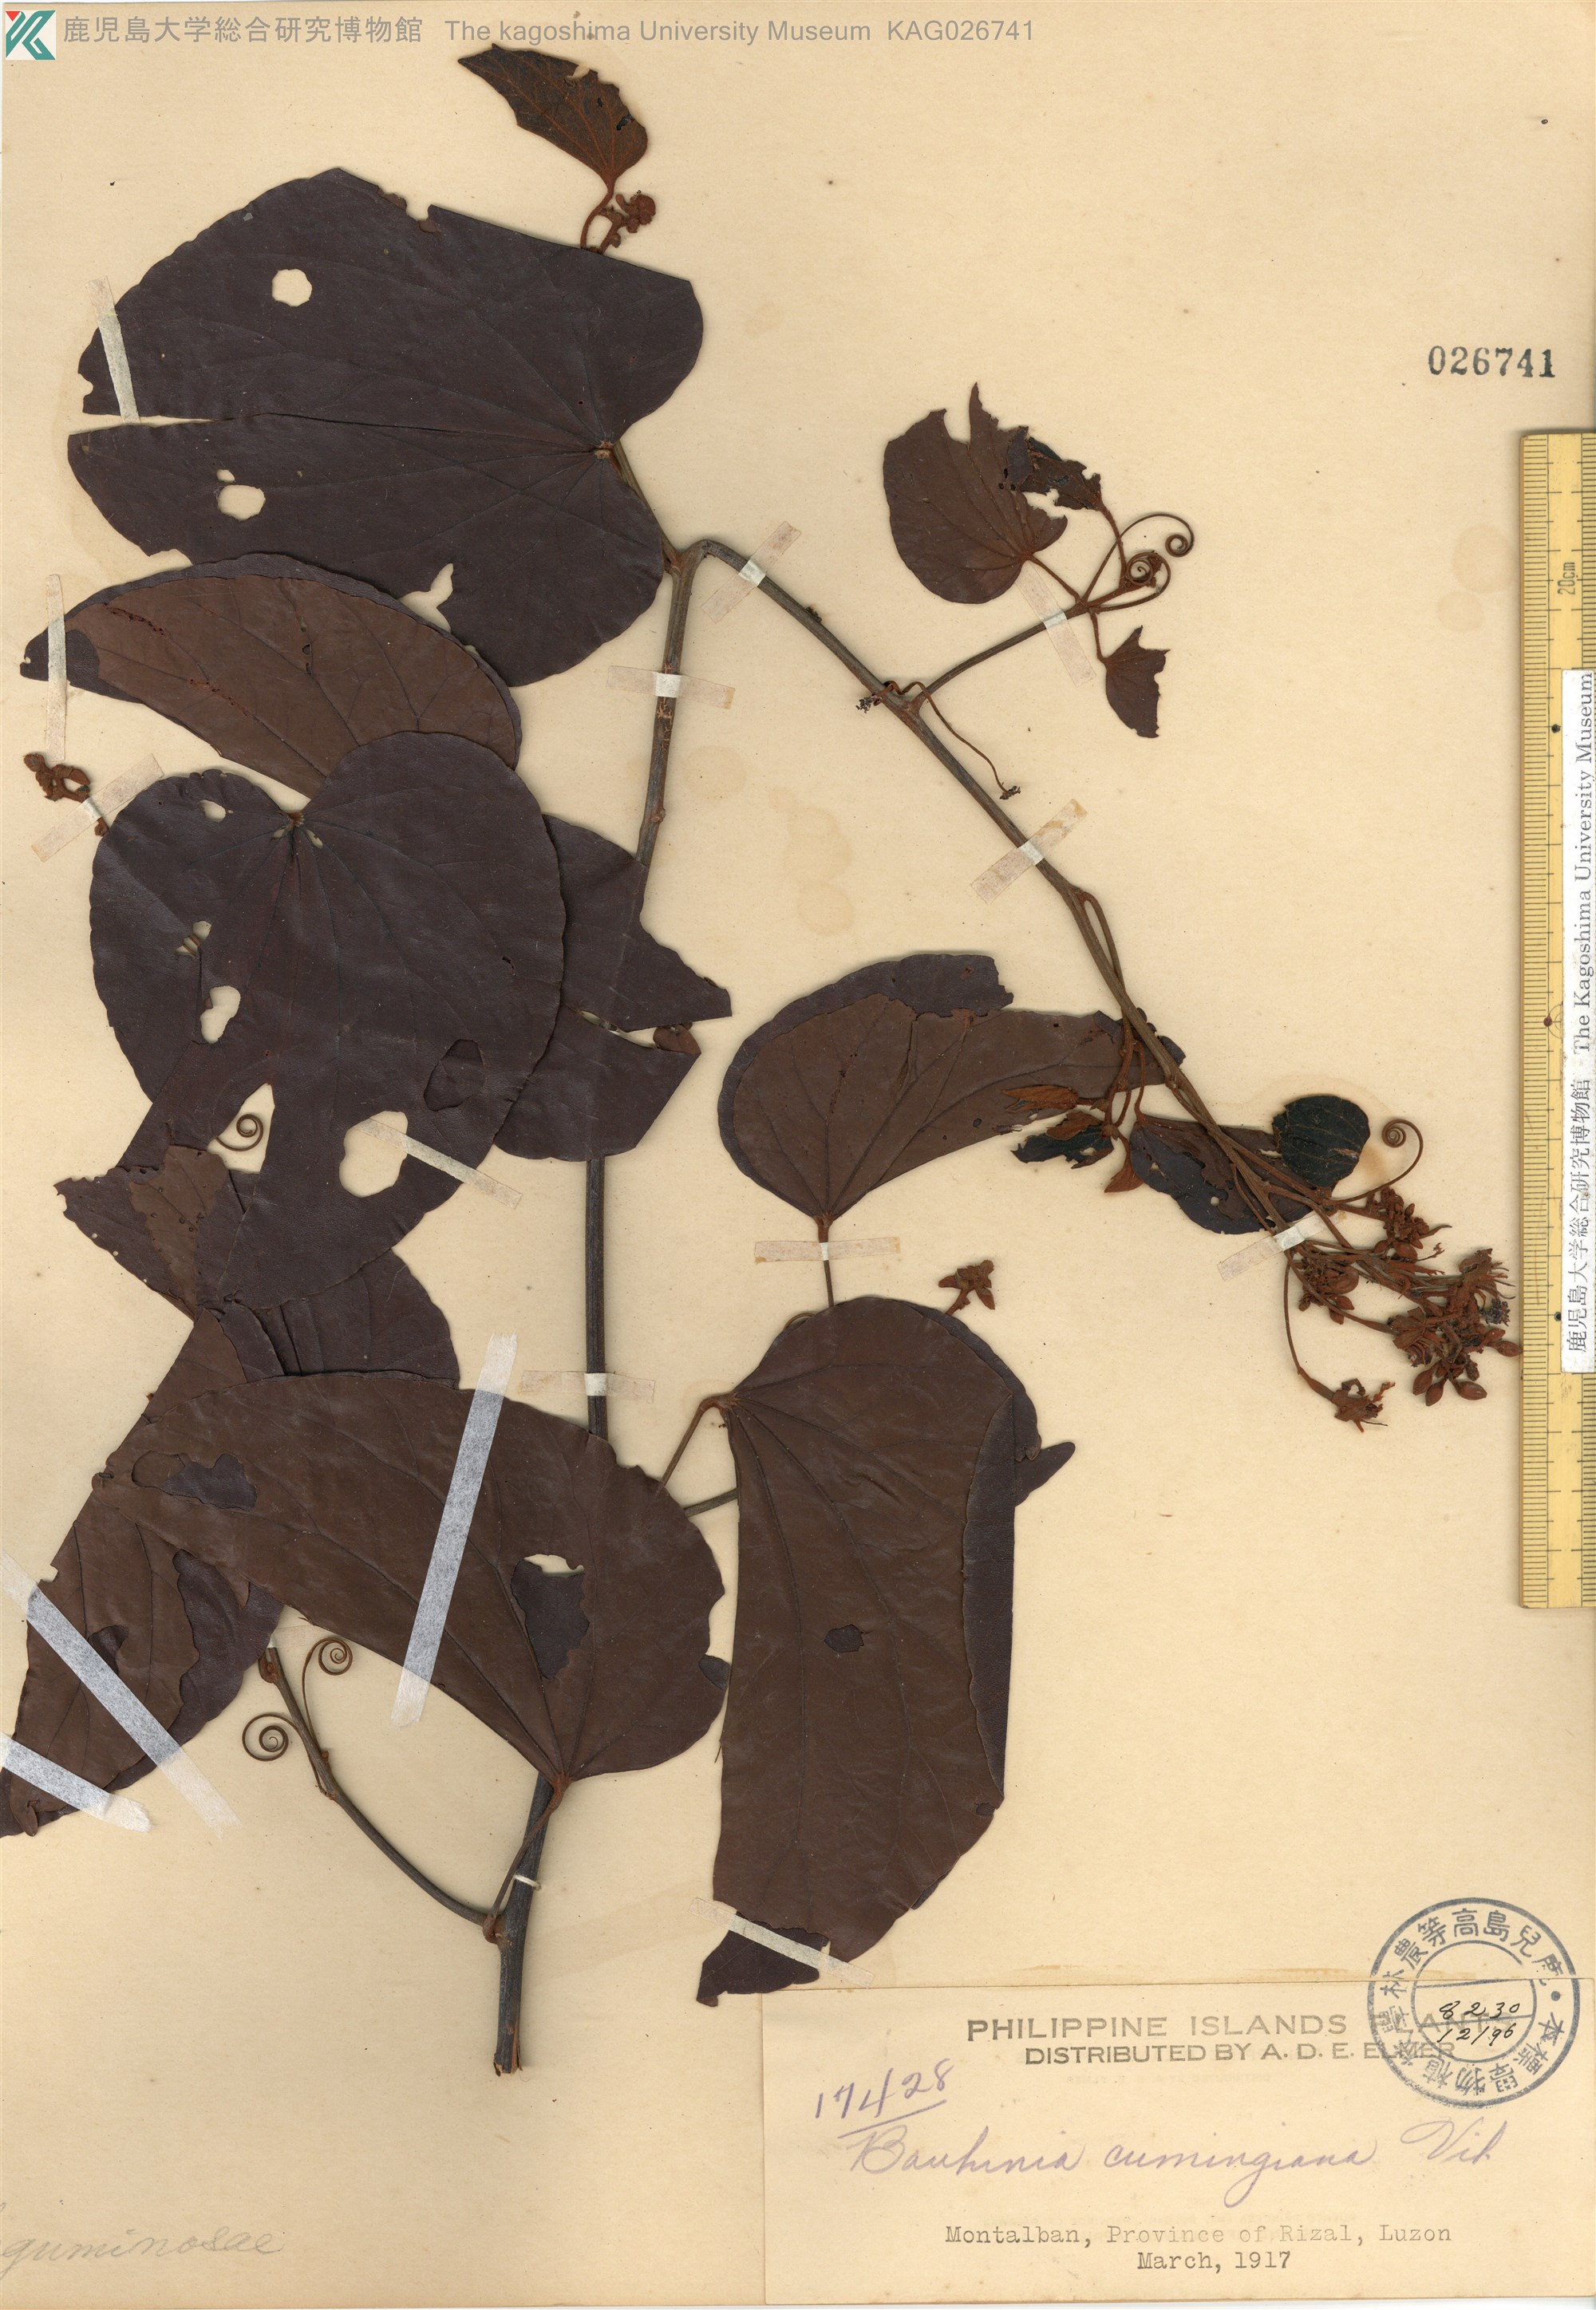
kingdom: Plantae
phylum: Tracheophyta
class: Magnoliopsida
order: Fabales
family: Fabaceae
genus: Phanera
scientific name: Phanera integrifolia
